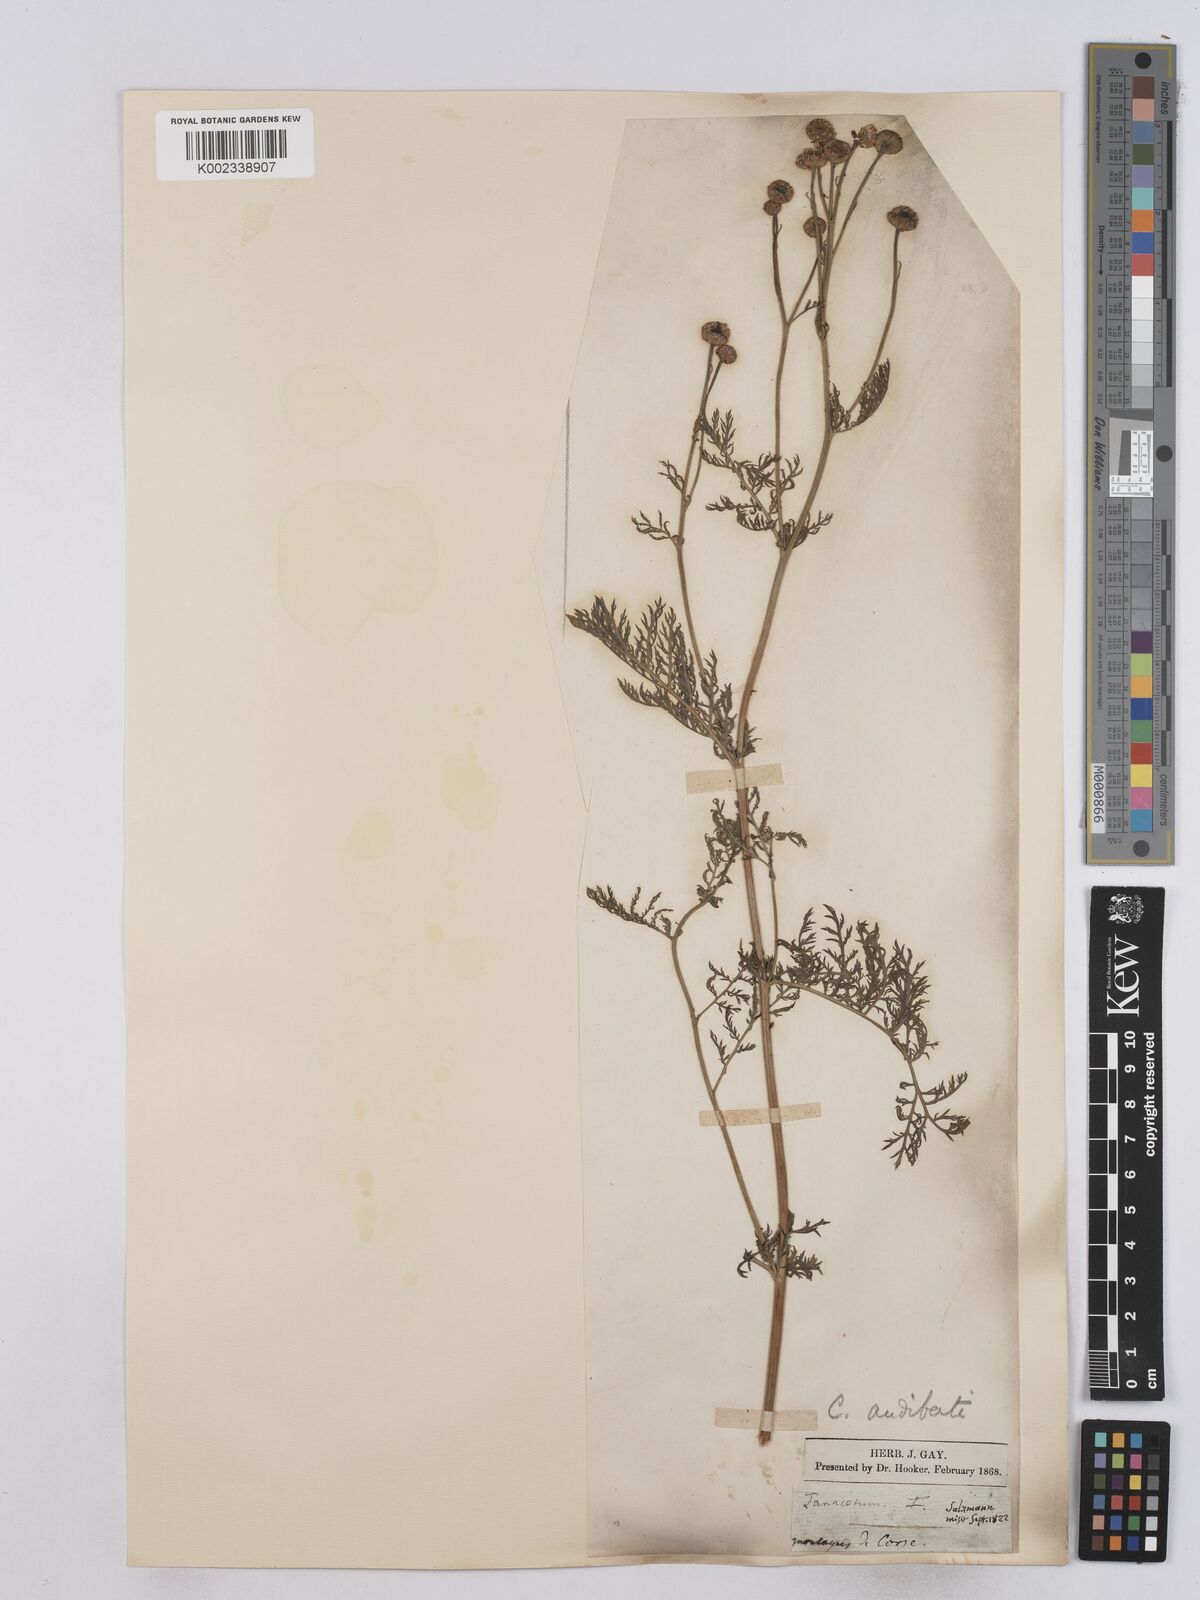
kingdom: Plantae
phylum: Tracheophyta
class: Magnoliopsida
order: Asterales
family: Asteraceae
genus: Tanacetum
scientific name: Tanacetum audibertii
